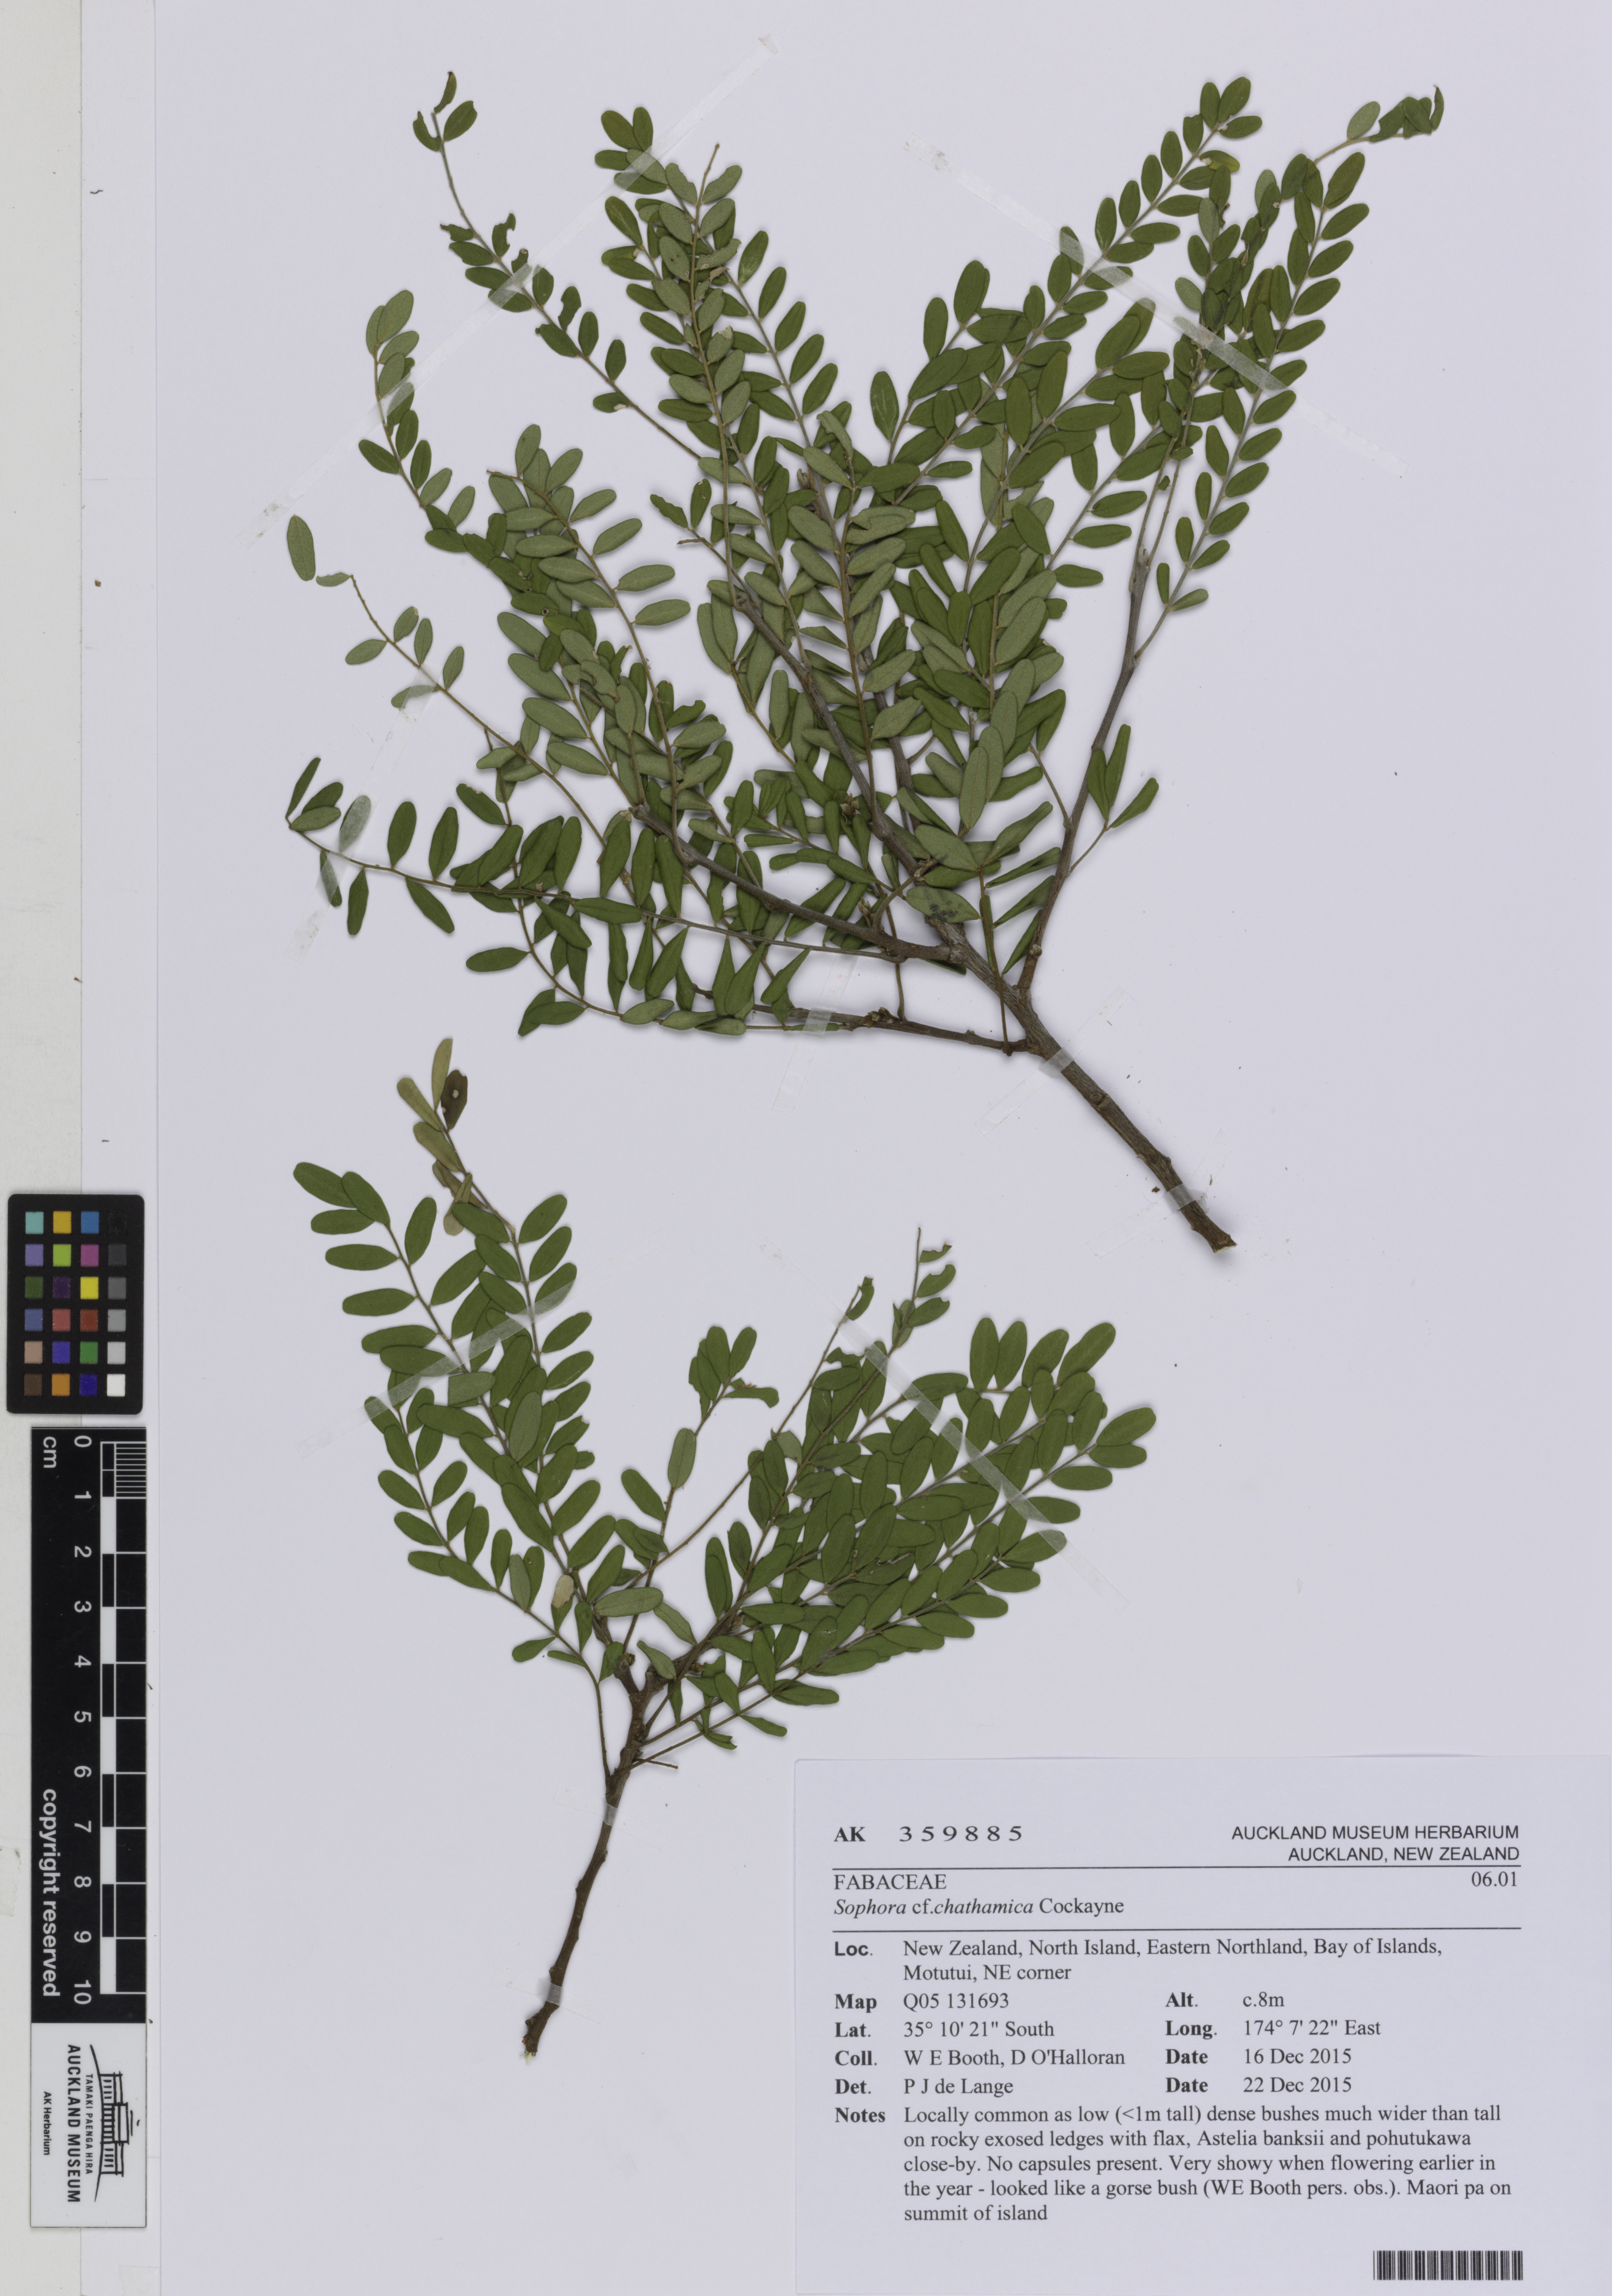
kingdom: Plantae
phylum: Tracheophyta
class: Magnoliopsida
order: Fabales
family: Fabaceae
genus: Sophora
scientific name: Sophora chathamica
